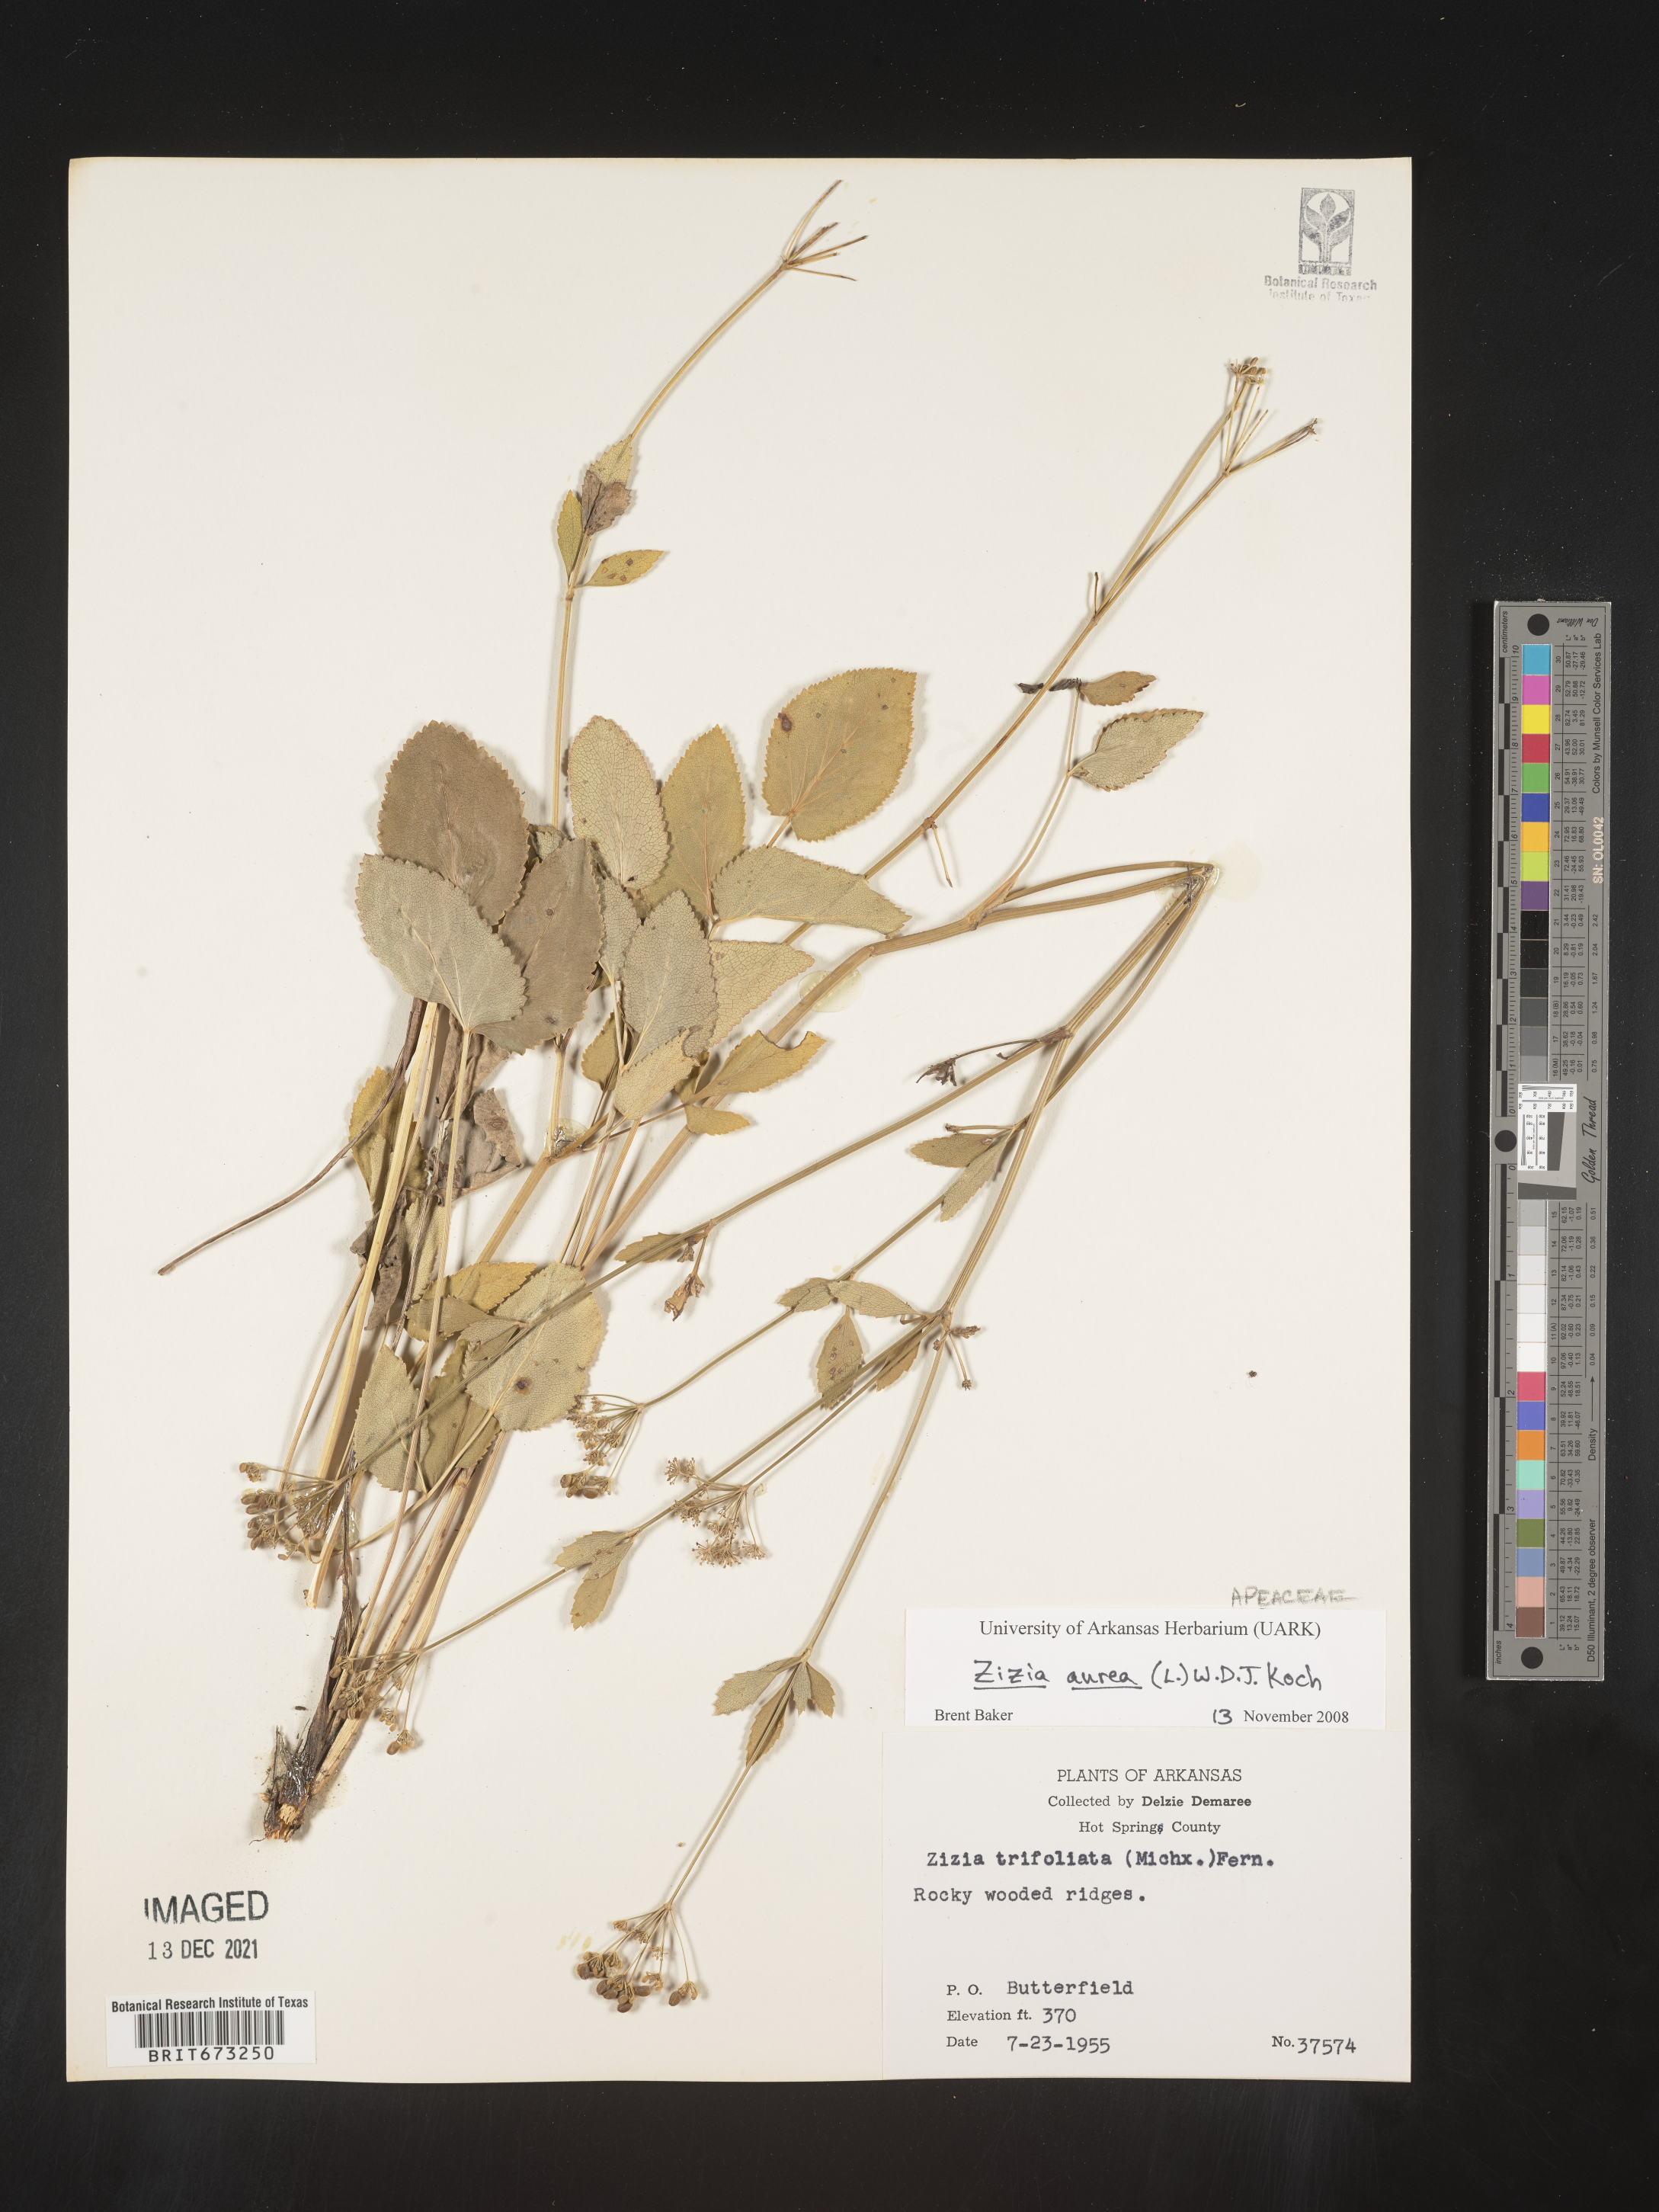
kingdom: Plantae
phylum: Tracheophyta
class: Magnoliopsida
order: Apiales
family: Apiaceae
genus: Zizia
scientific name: Zizia aurea
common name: Golden alexanders
